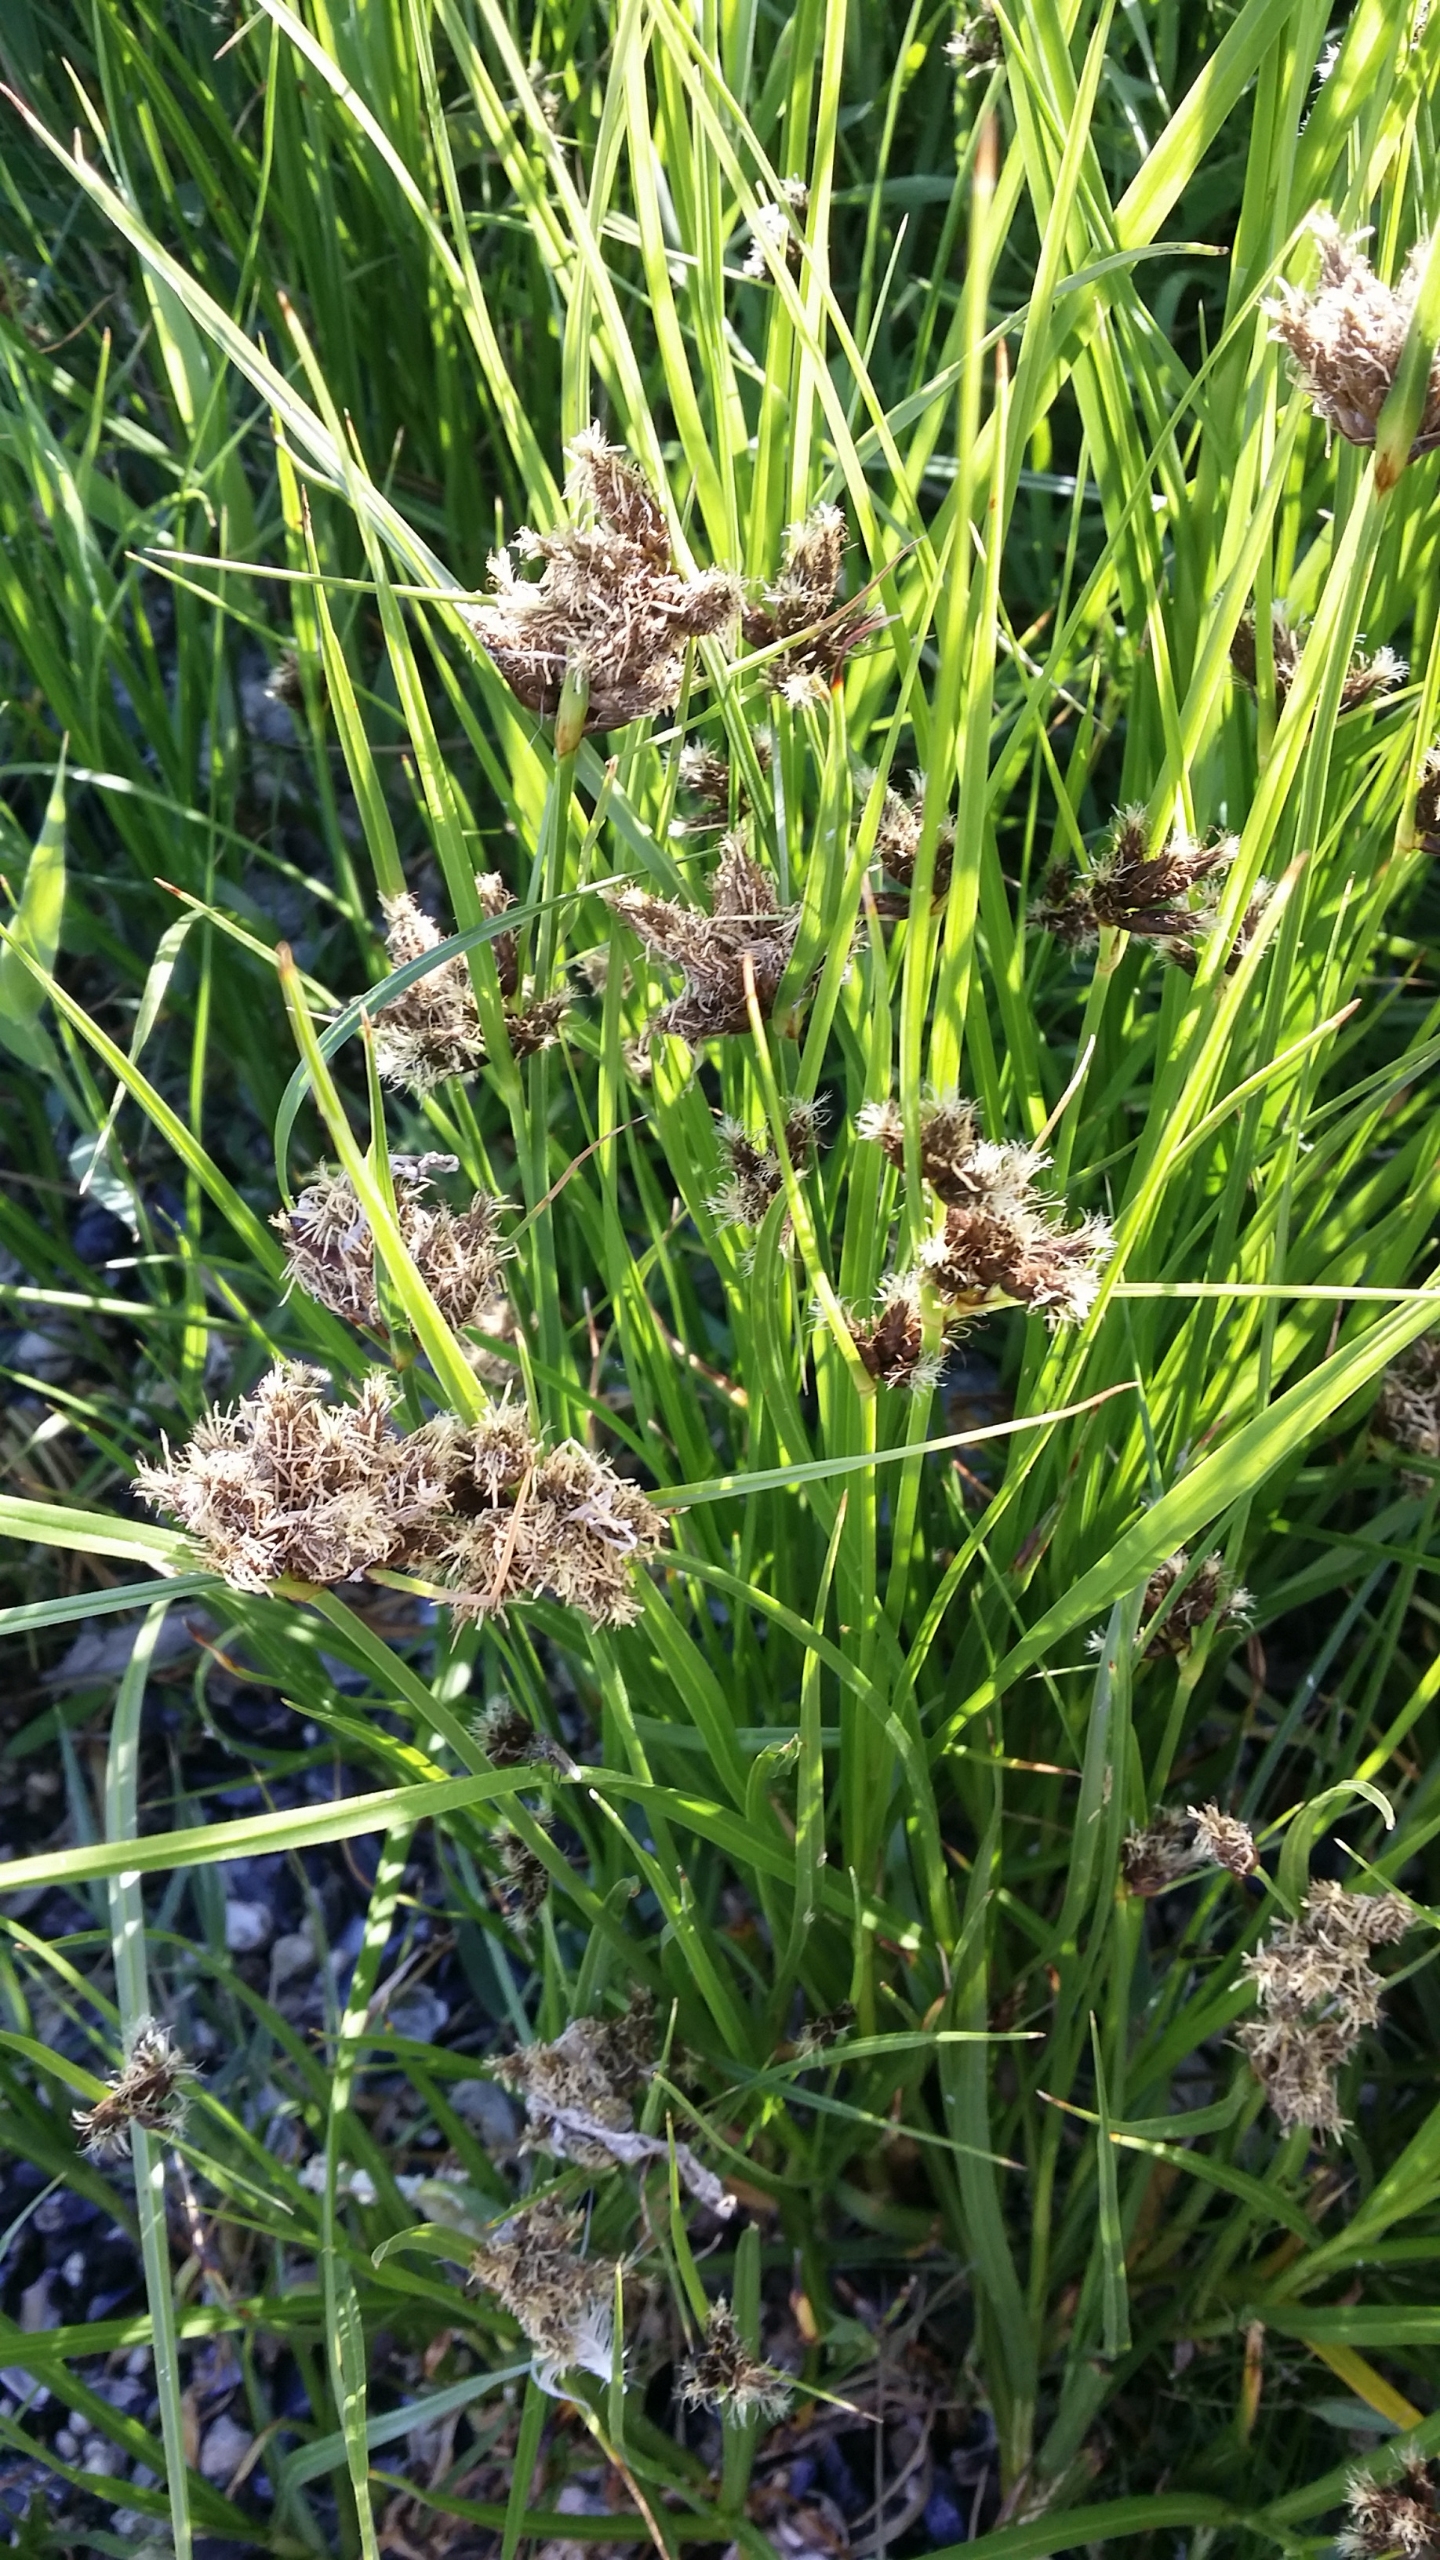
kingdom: Plantae
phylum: Tracheophyta
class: Liliopsida
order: Poales
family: Cyperaceae
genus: Bolboschoenus
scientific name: Bolboschoenus maritimus
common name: Strand-kogleaks
